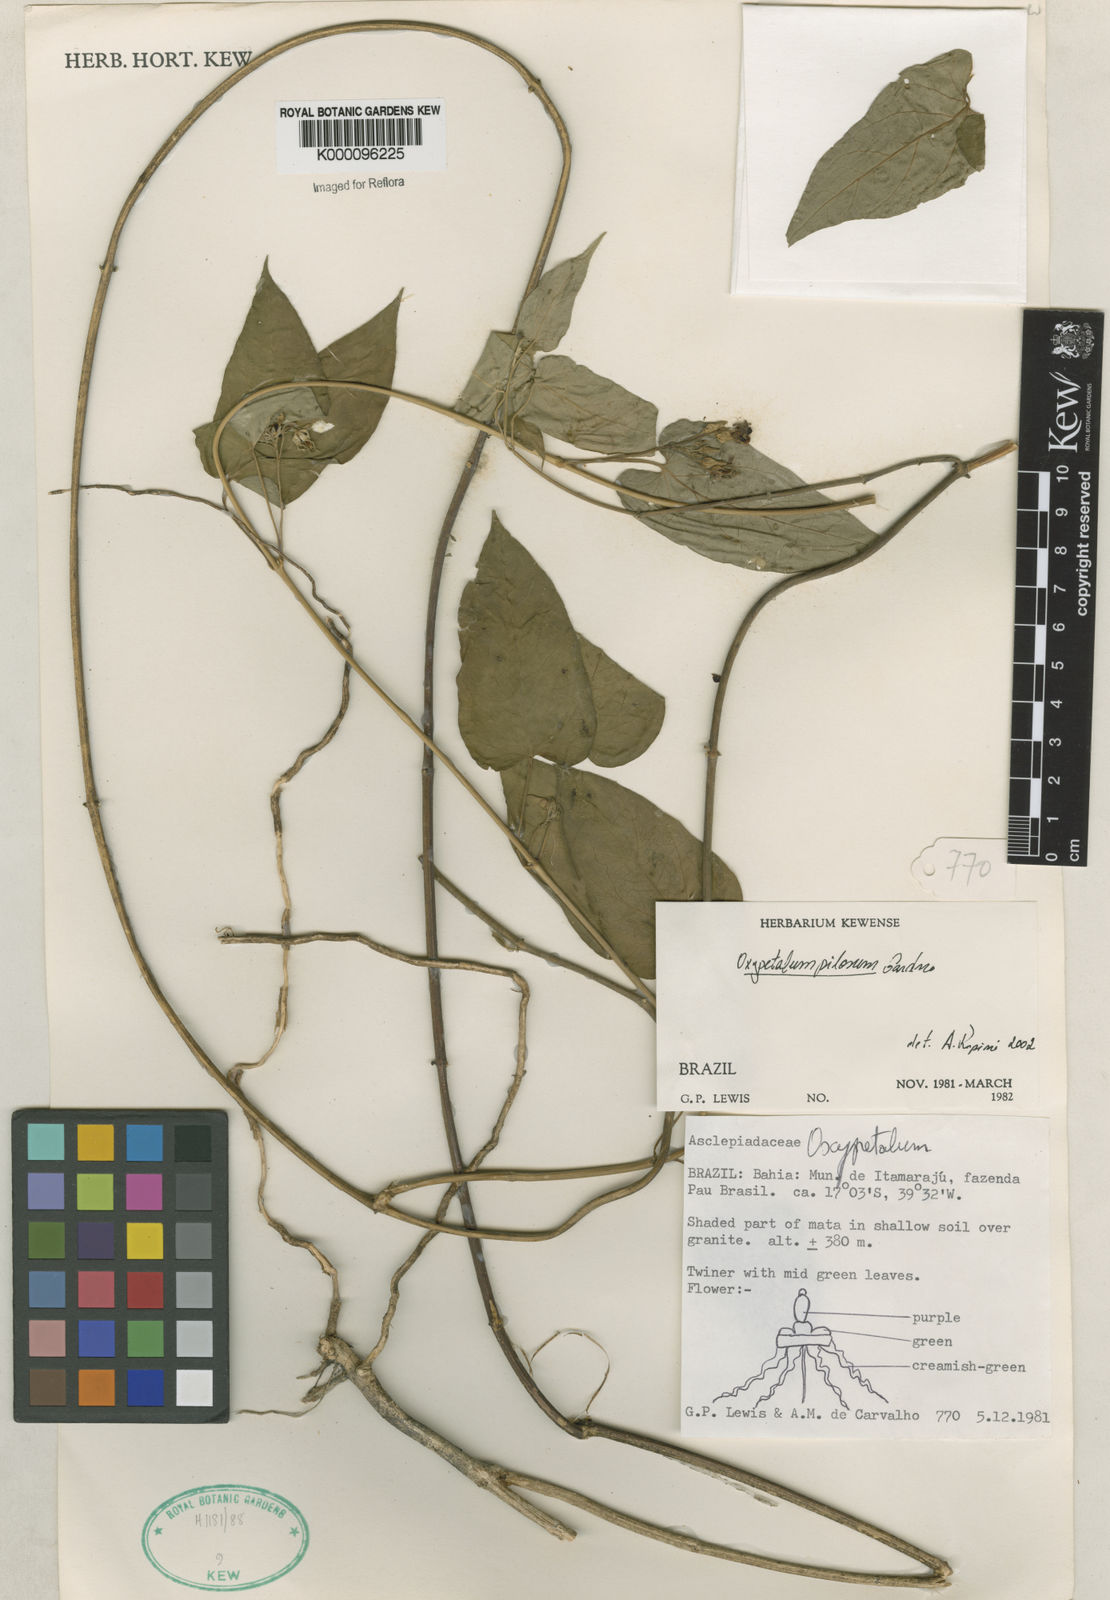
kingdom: Plantae
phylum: Tracheophyta
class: Magnoliopsida
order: Gentianales
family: Apocynaceae
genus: Oxypetalum
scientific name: Oxypetalum pilosum
